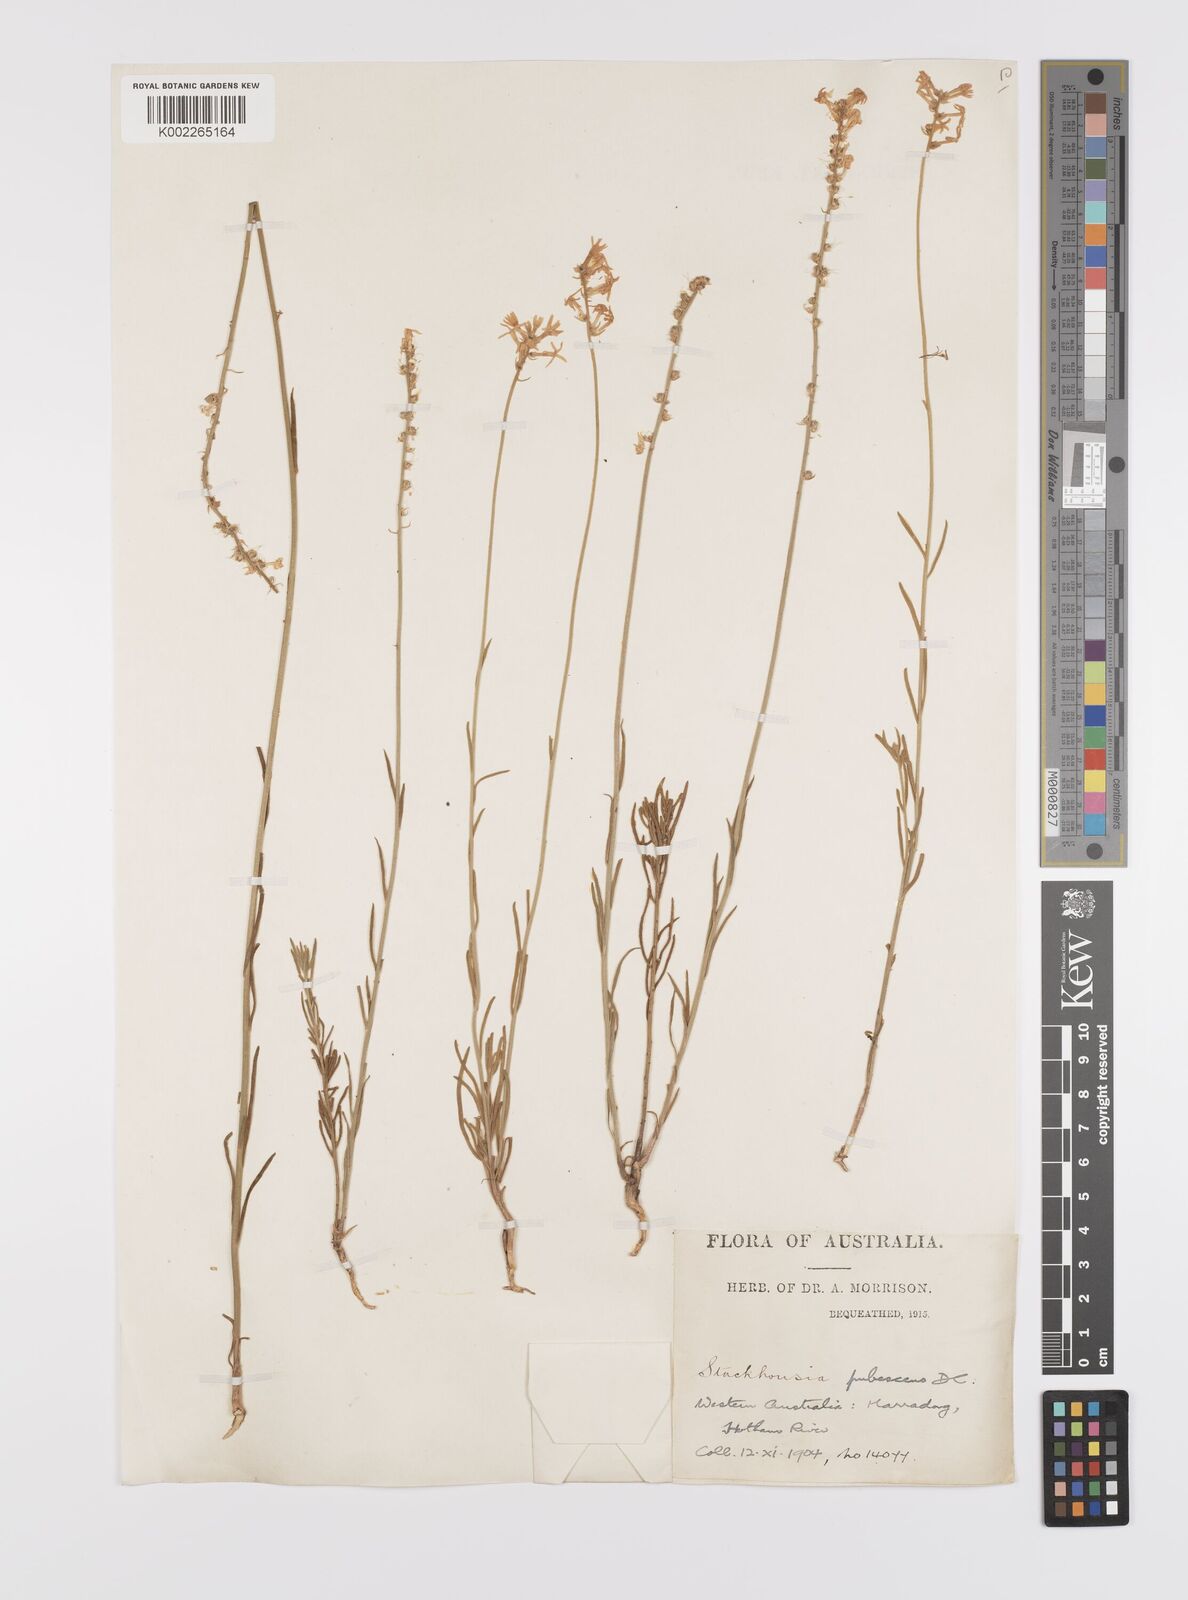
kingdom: Plantae
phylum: Tracheophyta
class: Magnoliopsida
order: Celastrales
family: Celastraceae
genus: Stackhousia
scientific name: Stackhousia monogyna
